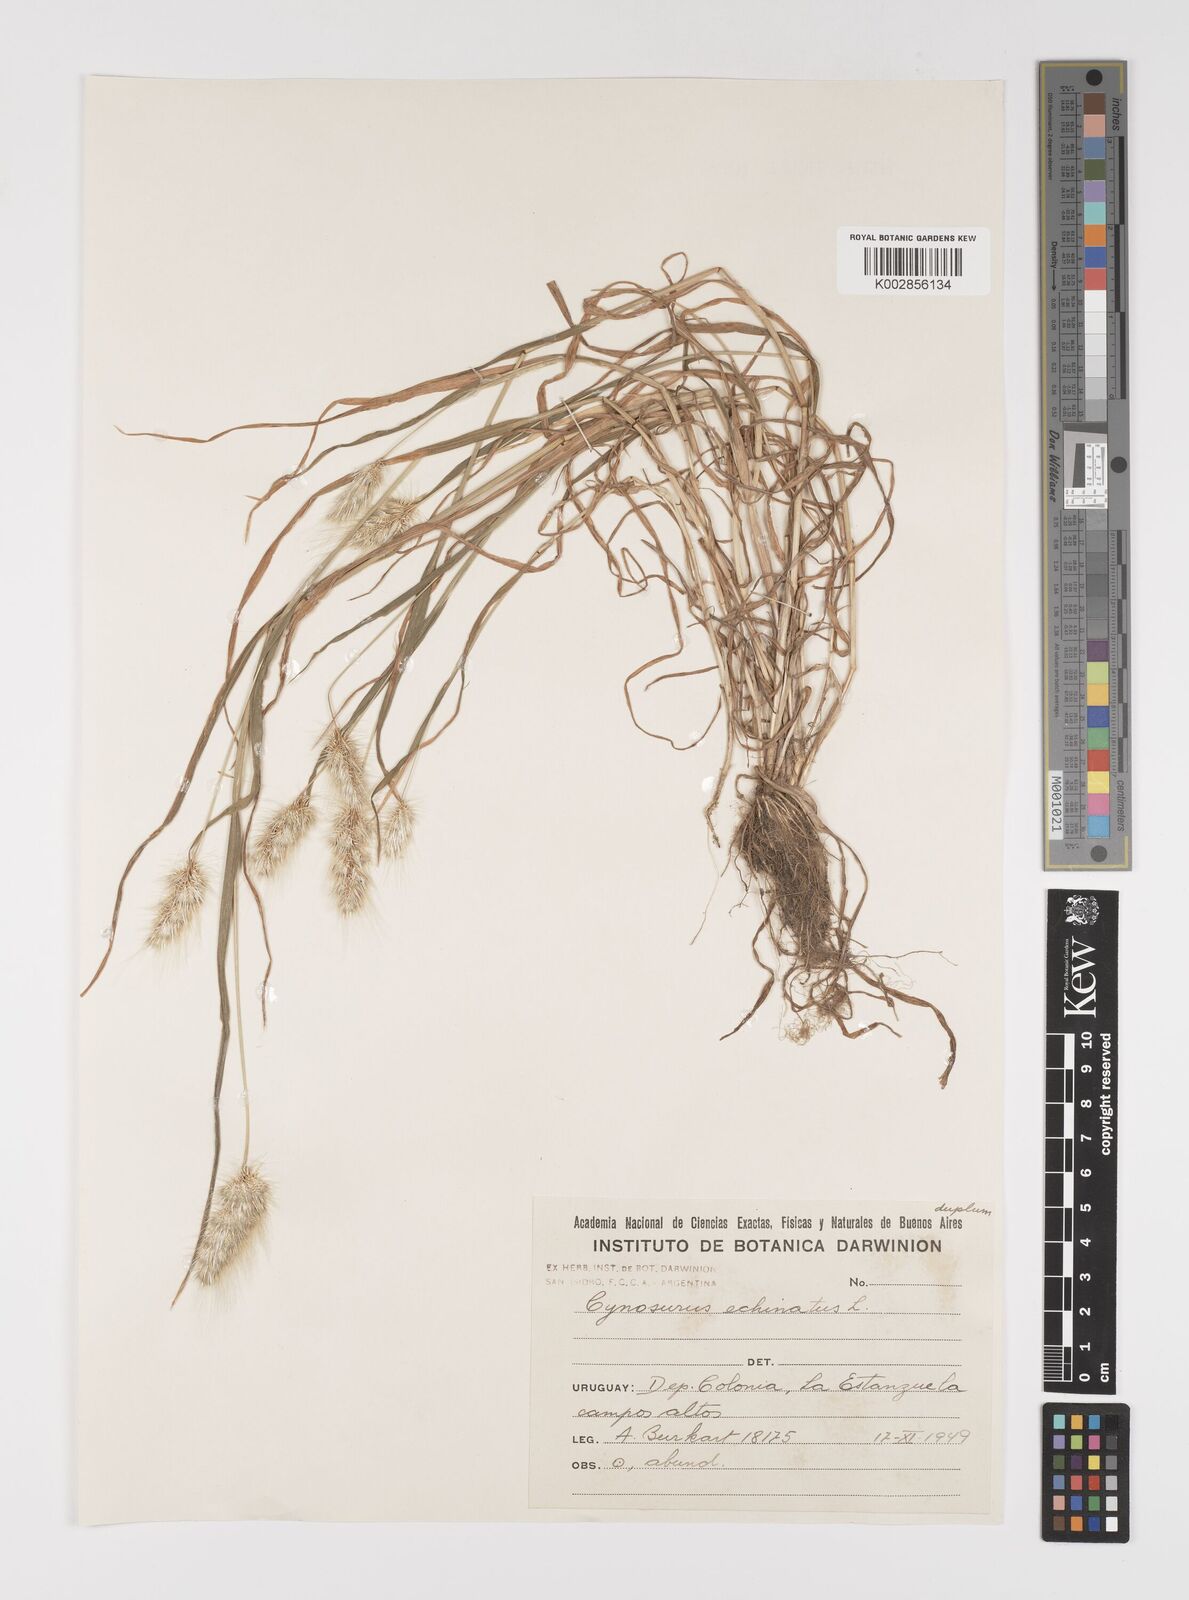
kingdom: Plantae
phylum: Tracheophyta
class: Liliopsida
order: Poales
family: Poaceae
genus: Cynosurus
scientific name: Cynosurus echinatus
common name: Rough dog's-tail
